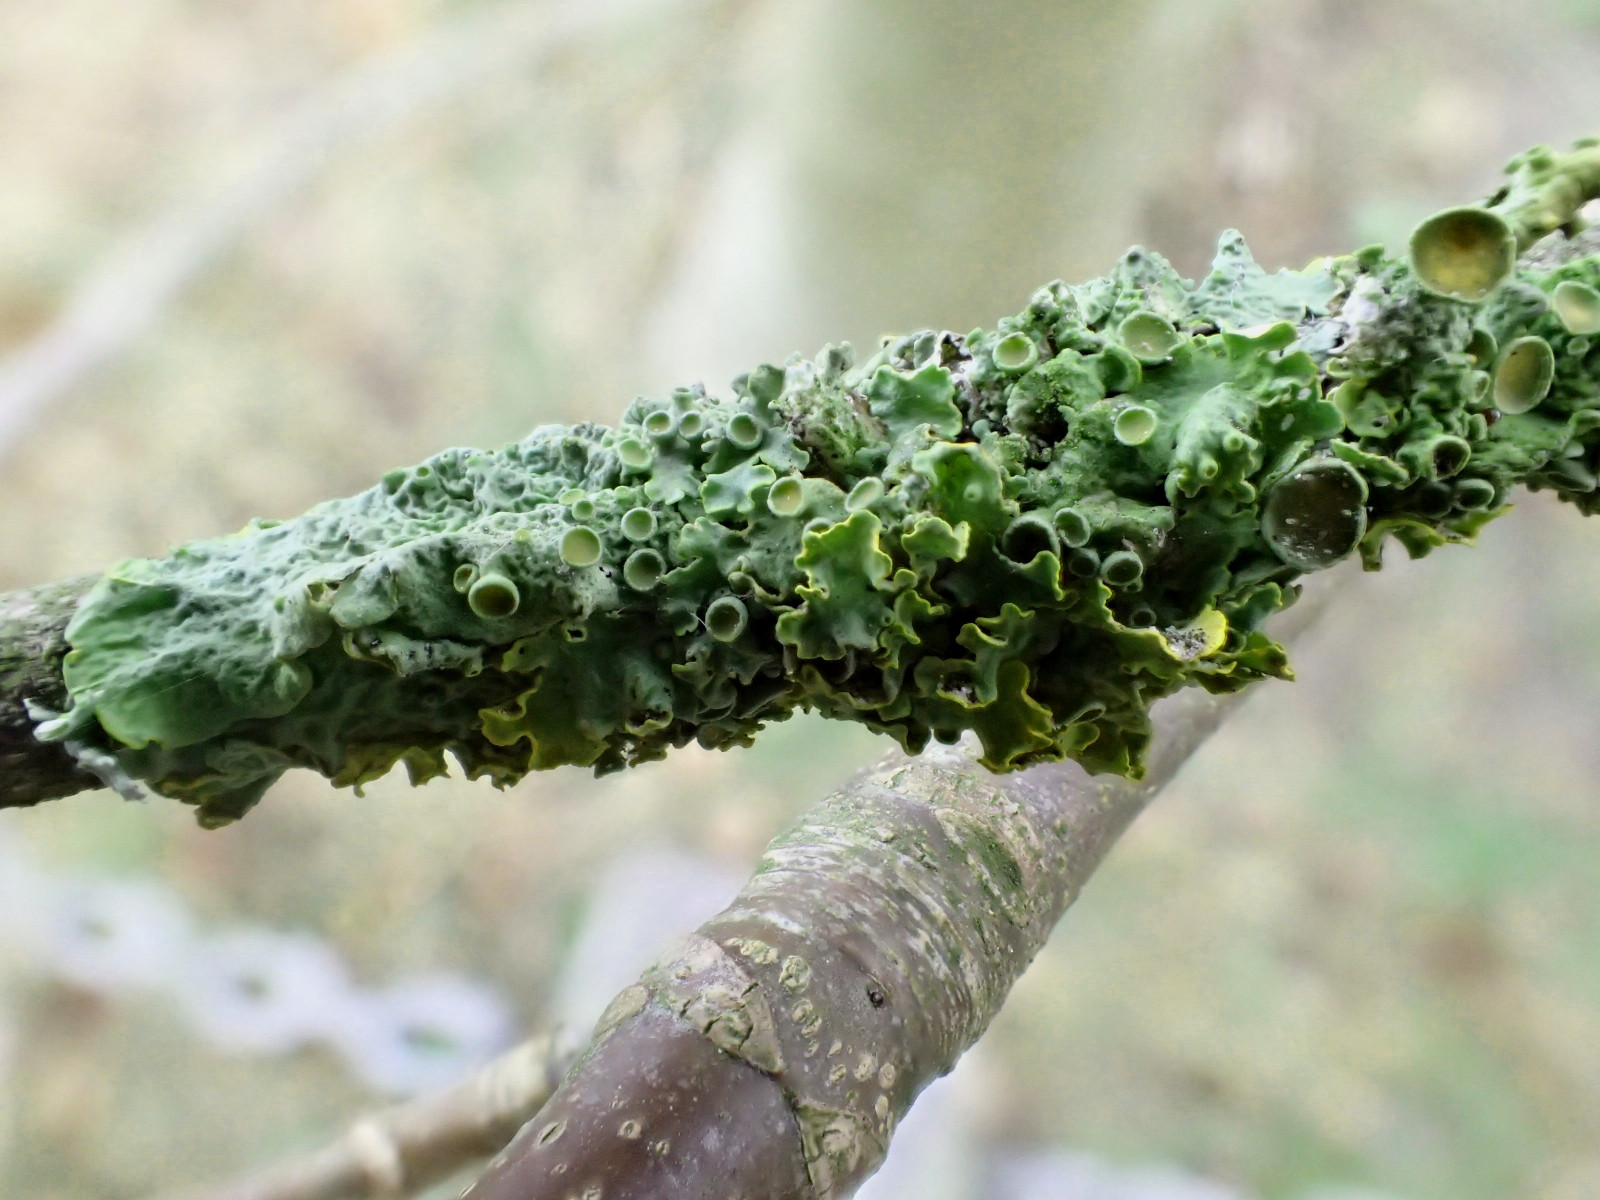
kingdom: Fungi
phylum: Ascomycota
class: Lecanoromycetes
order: Teloschistales
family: Teloschistaceae
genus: Xanthoria
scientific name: Xanthoria parietina
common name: almindelig væggelav
